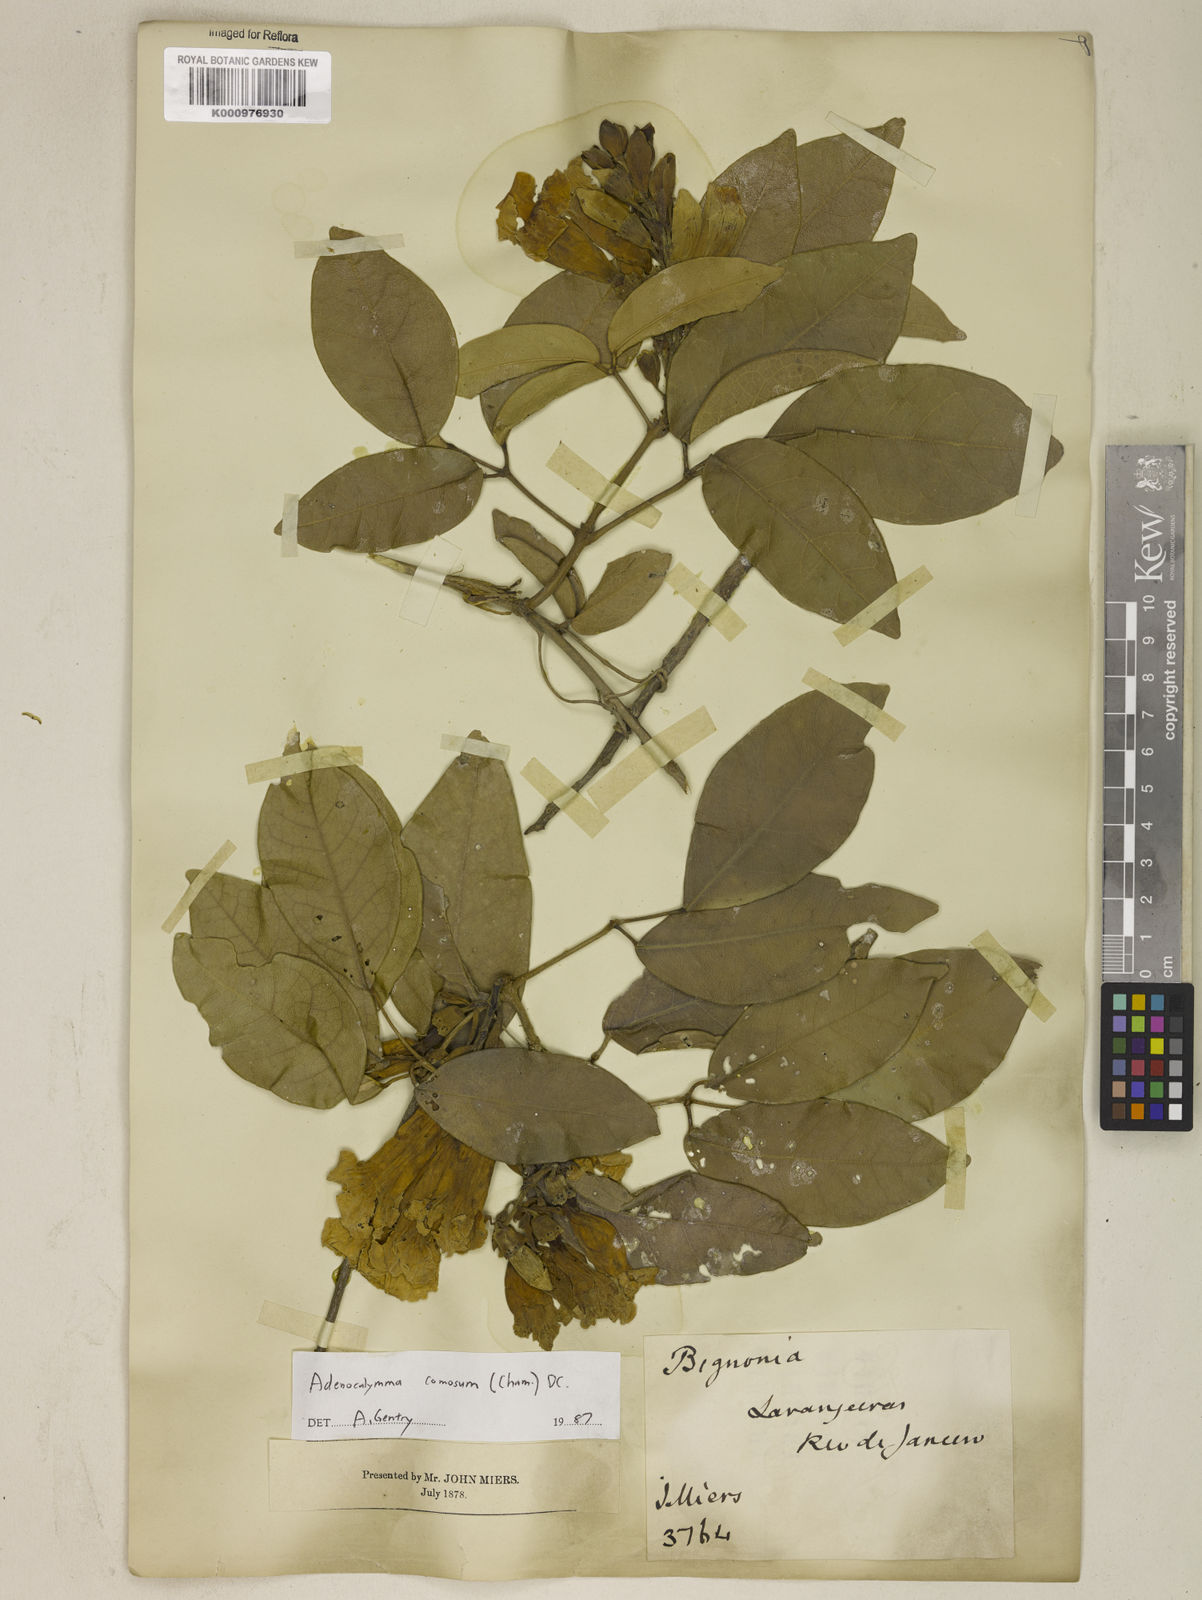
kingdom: Plantae
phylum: Tracheophyta
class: Magnoliopsida
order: Lamiales
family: Bignoniaceae
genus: Adenocalymma
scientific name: Adenocalymma acutissimum
